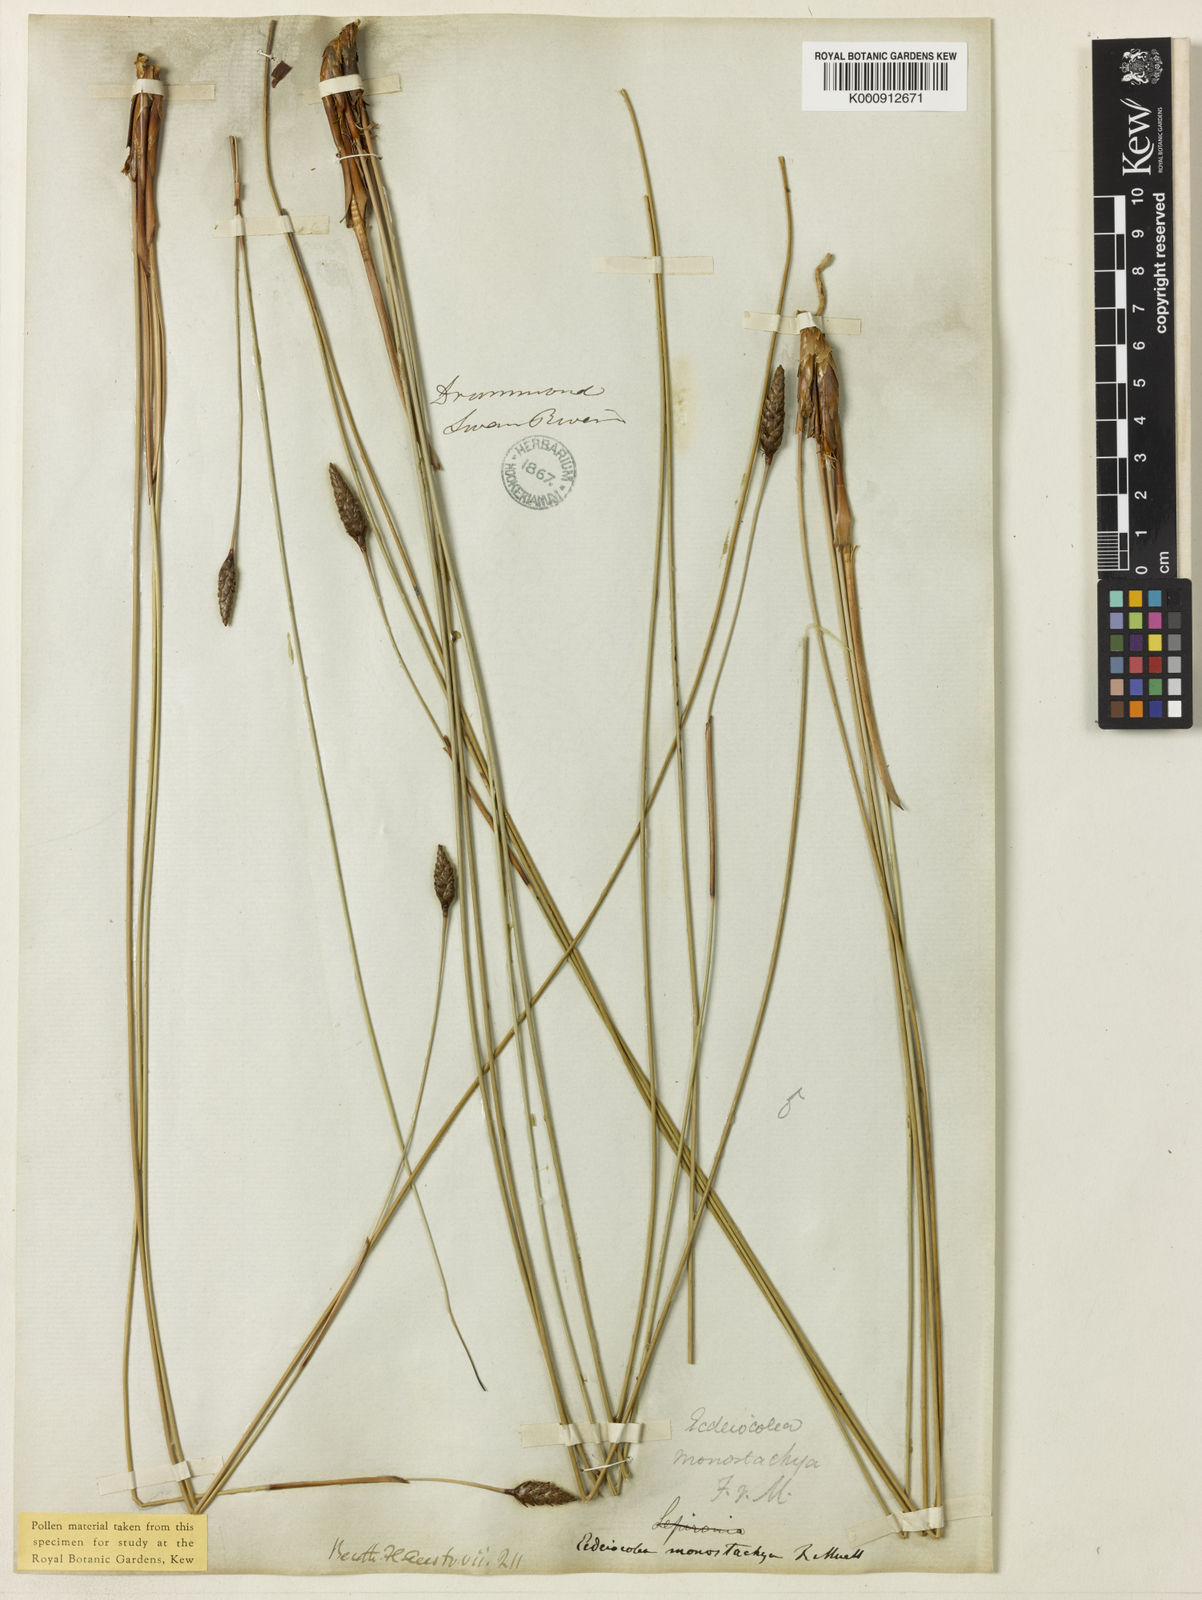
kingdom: Plantae
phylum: Tracheophyta
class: Liliopsida
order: Poales
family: Ecdeiocoleaceae
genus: Ecdeiocolea
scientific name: Ecdeiocolea monostachya
